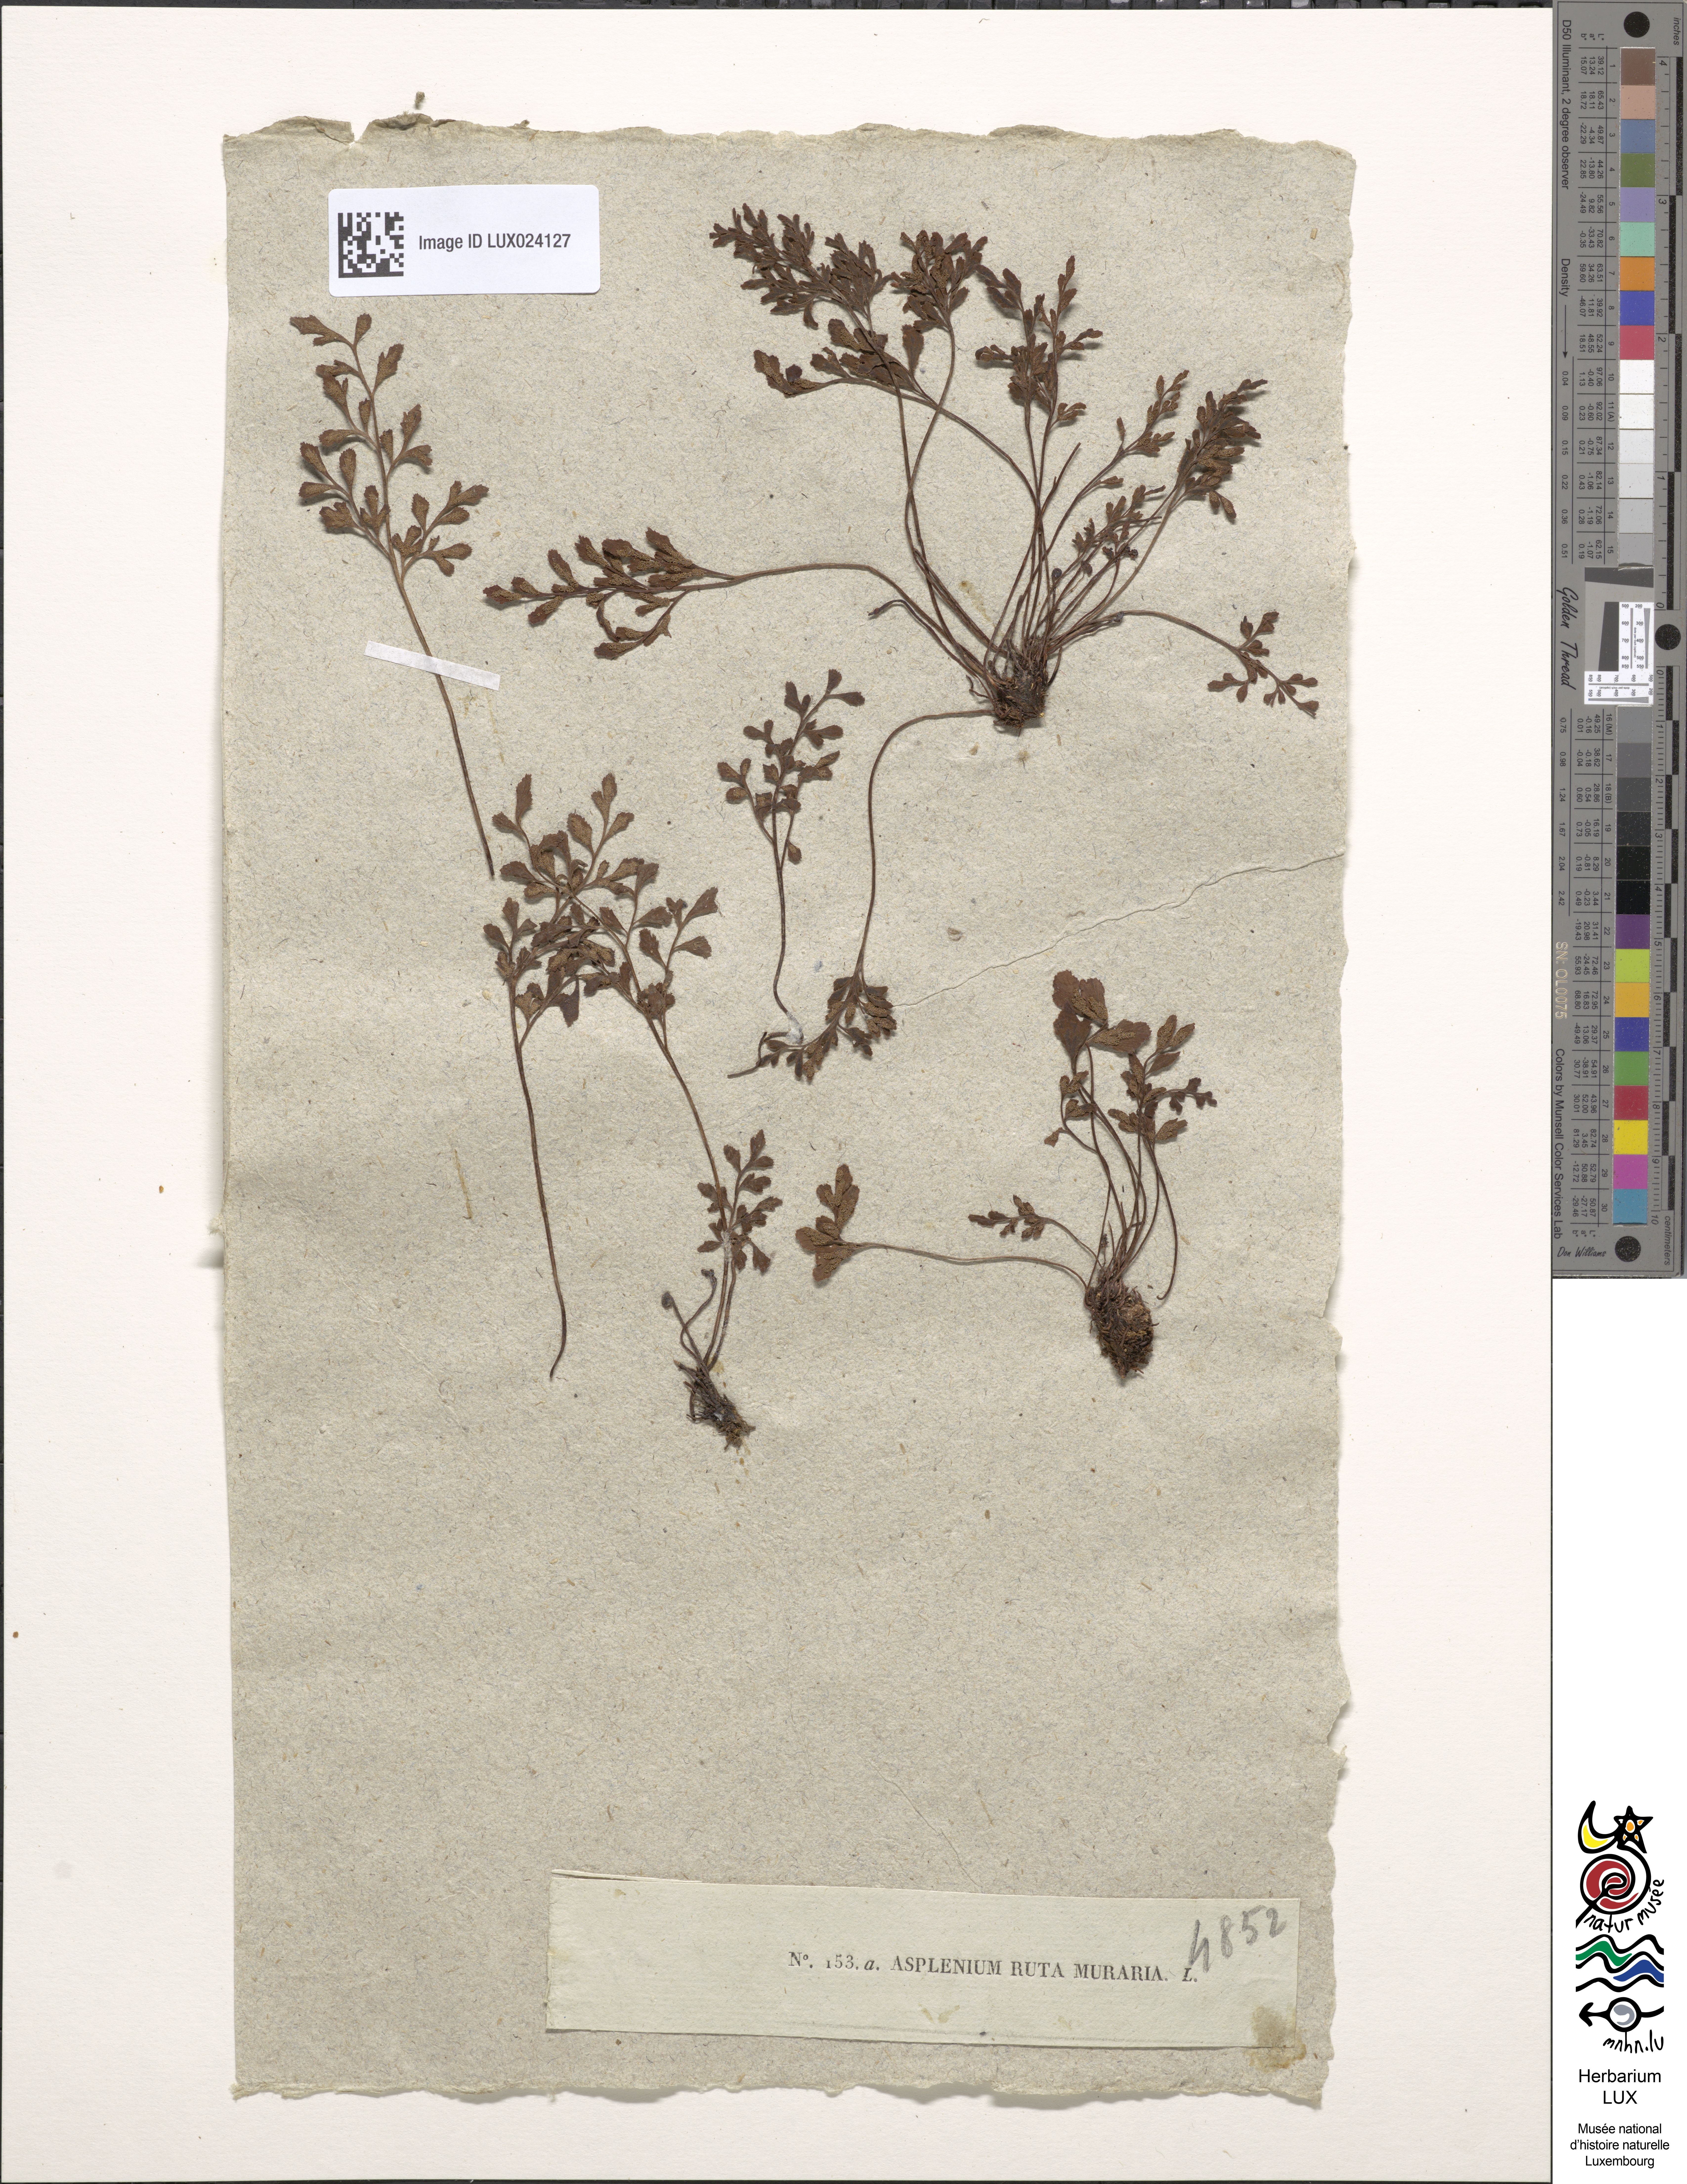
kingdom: Plantae
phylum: Tracheophyta
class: Polypodiopsida
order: Polypodiales
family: Aspleniaceae
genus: Asplenium
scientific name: Asplenium ruta-muraria
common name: Wall-rue
